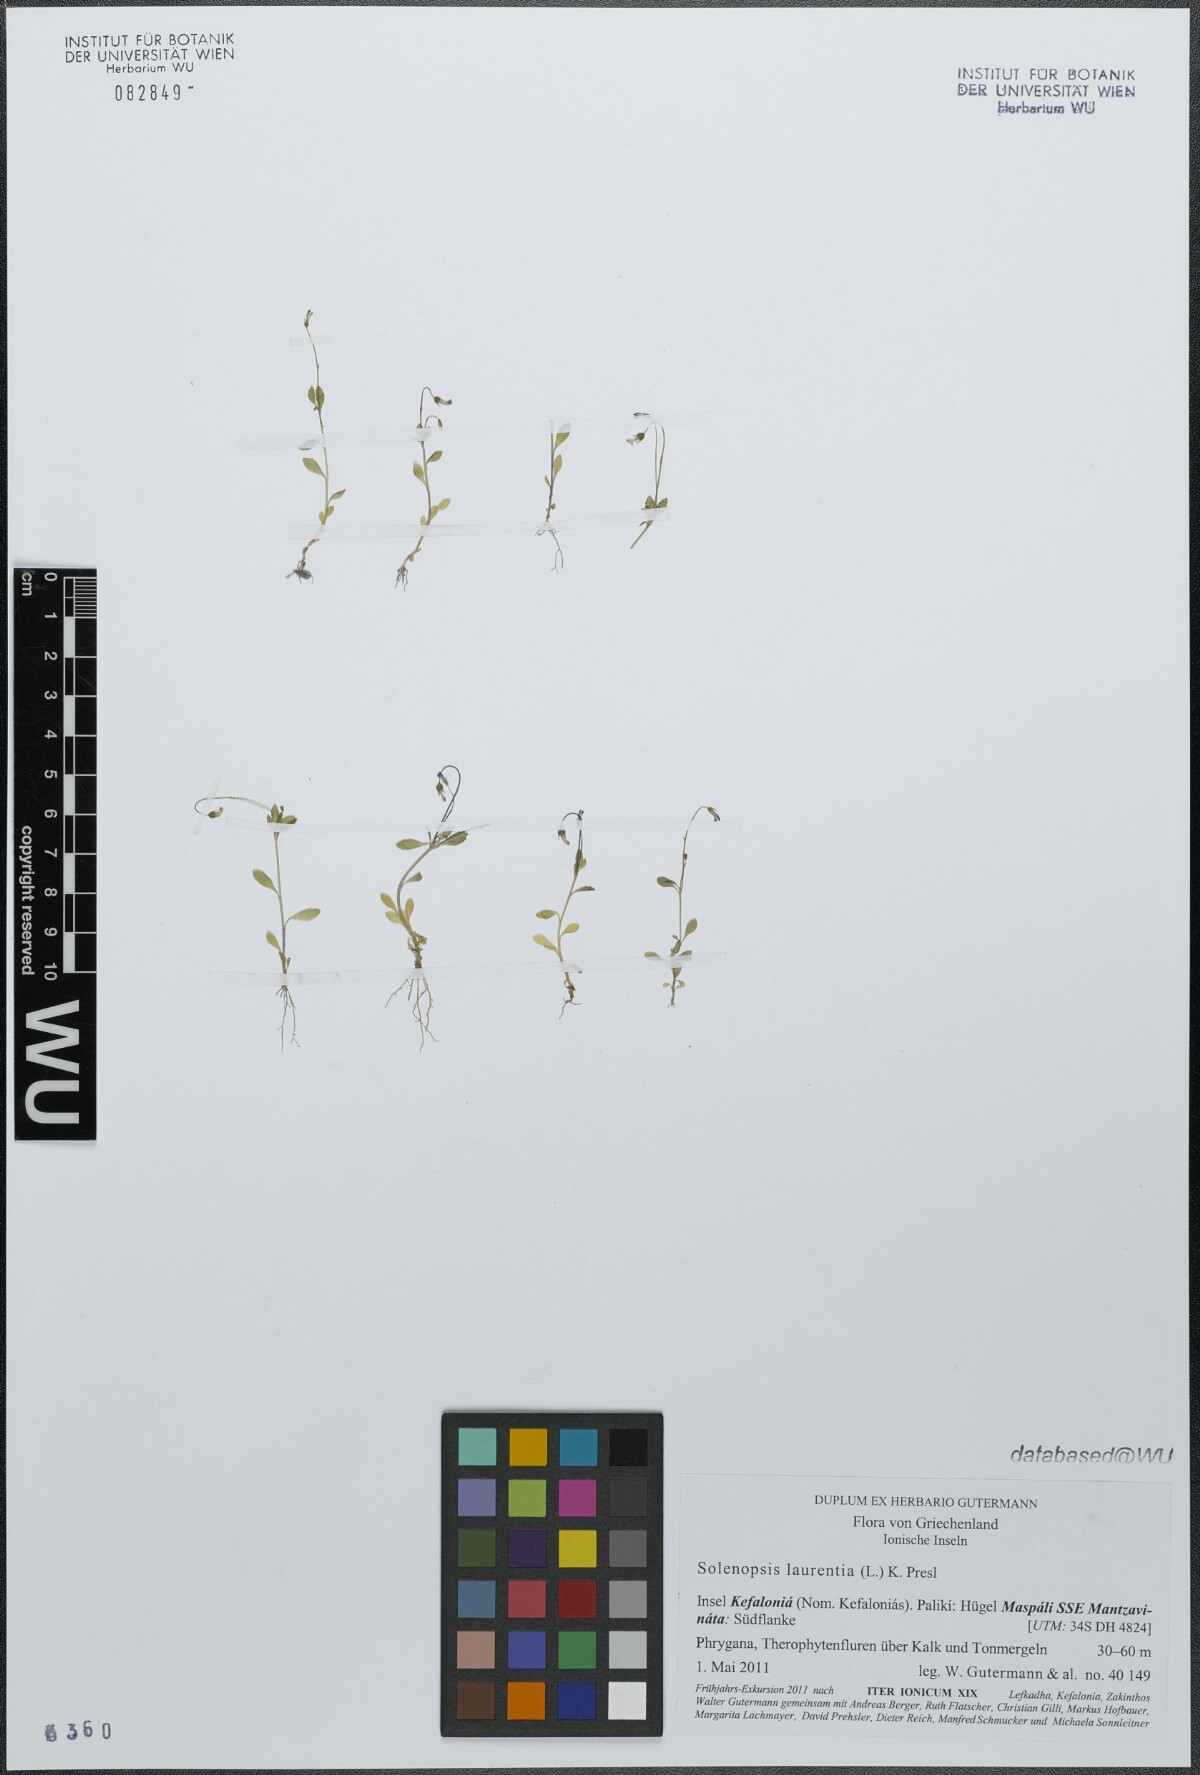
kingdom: Plantae
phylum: Tracheophyta
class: Magnoliopsida
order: Asterales
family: Campanulaceae
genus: Solenopsis
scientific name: Solenopsis laurentia
